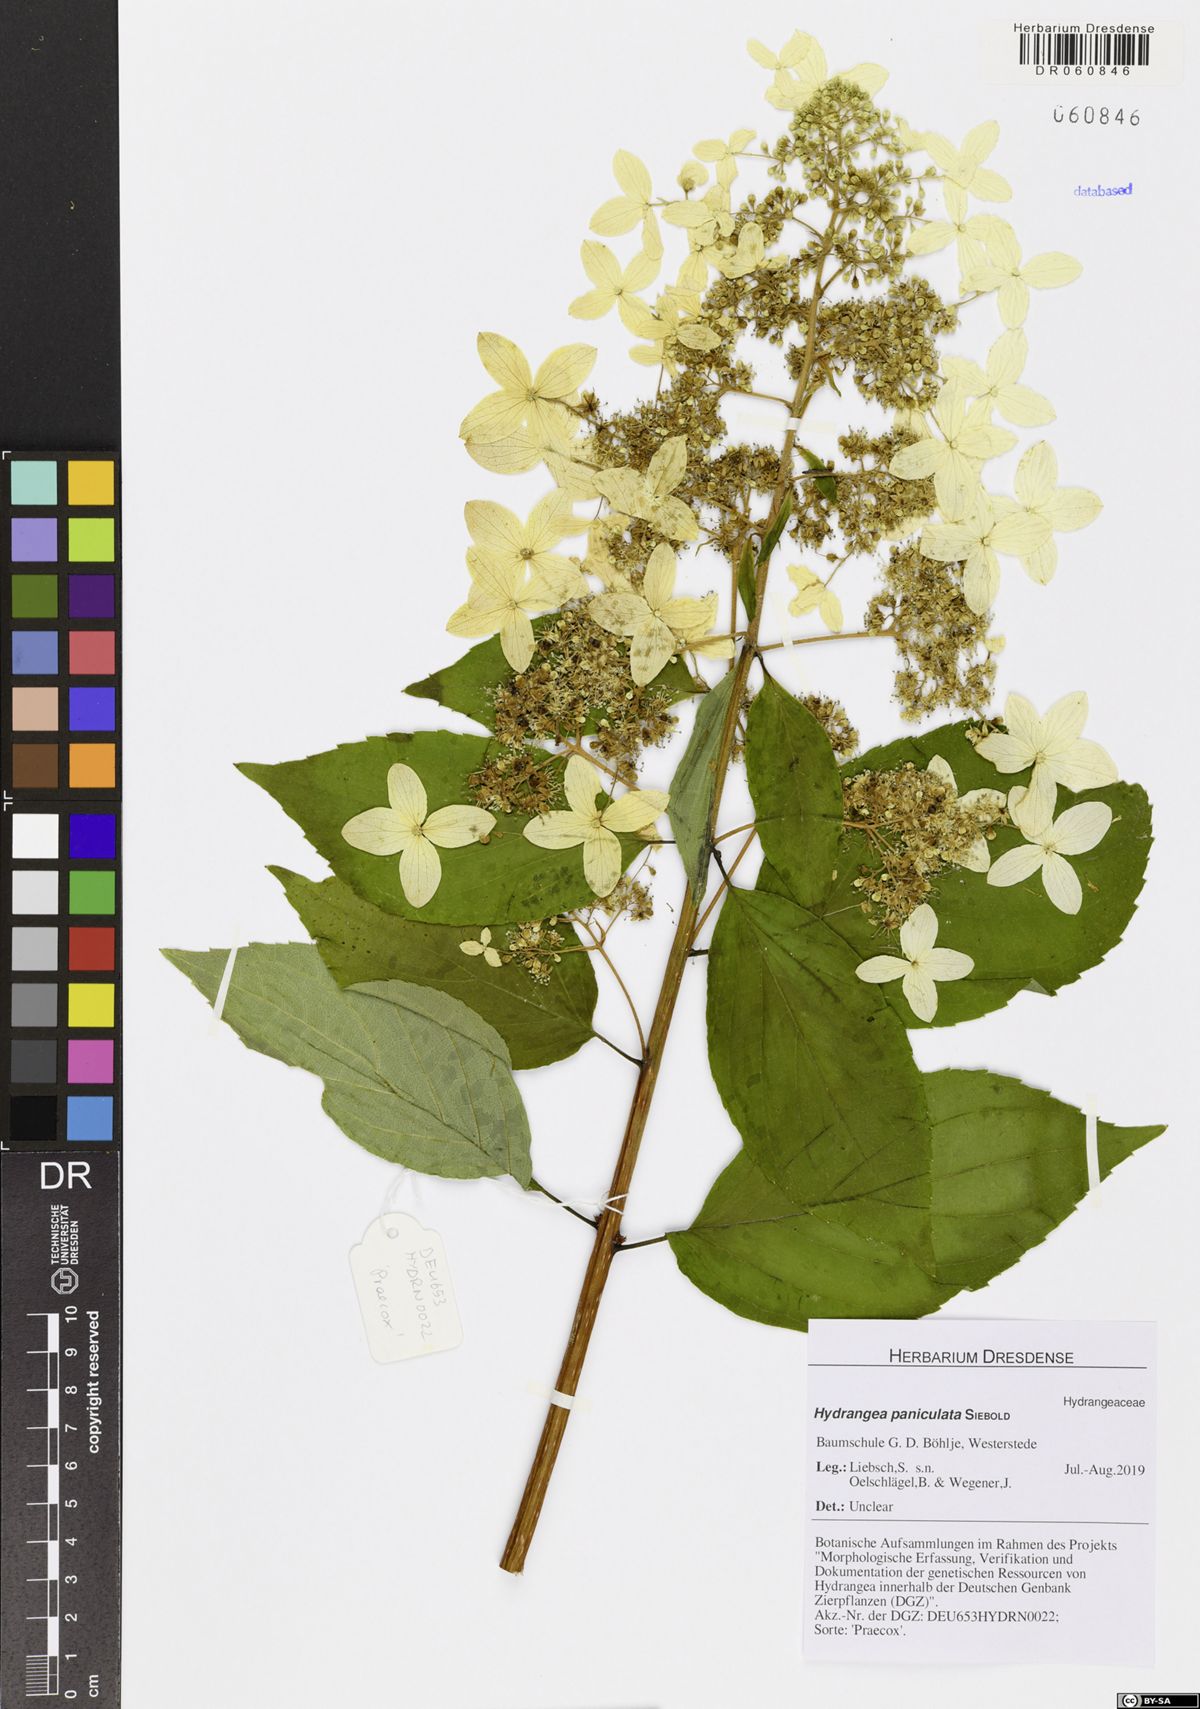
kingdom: Plantae
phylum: Tracheophyta
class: Magnoliopsida
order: Cornales
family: Hydrangeaceae
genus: Hydrangea
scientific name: Hydrangea paniculata
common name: Panicled hydrangea
